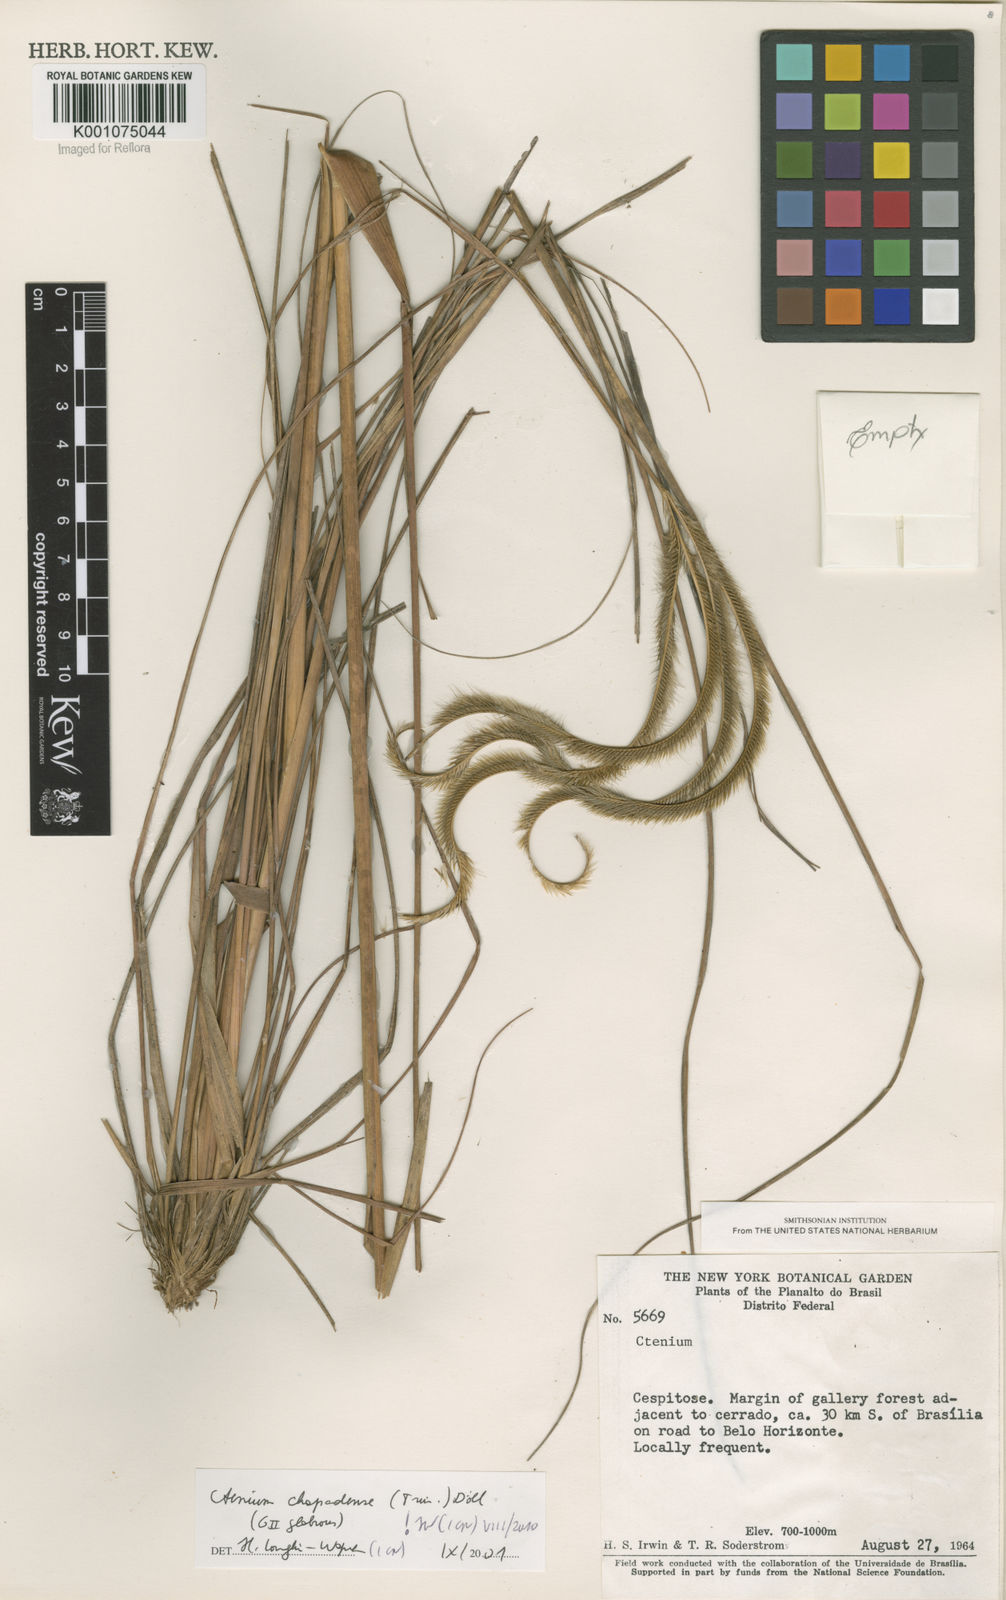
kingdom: Plantae
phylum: Tracheophyta
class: Liliopsida
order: Poales
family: Poaceae
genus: Ctenium
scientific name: Ctenium
